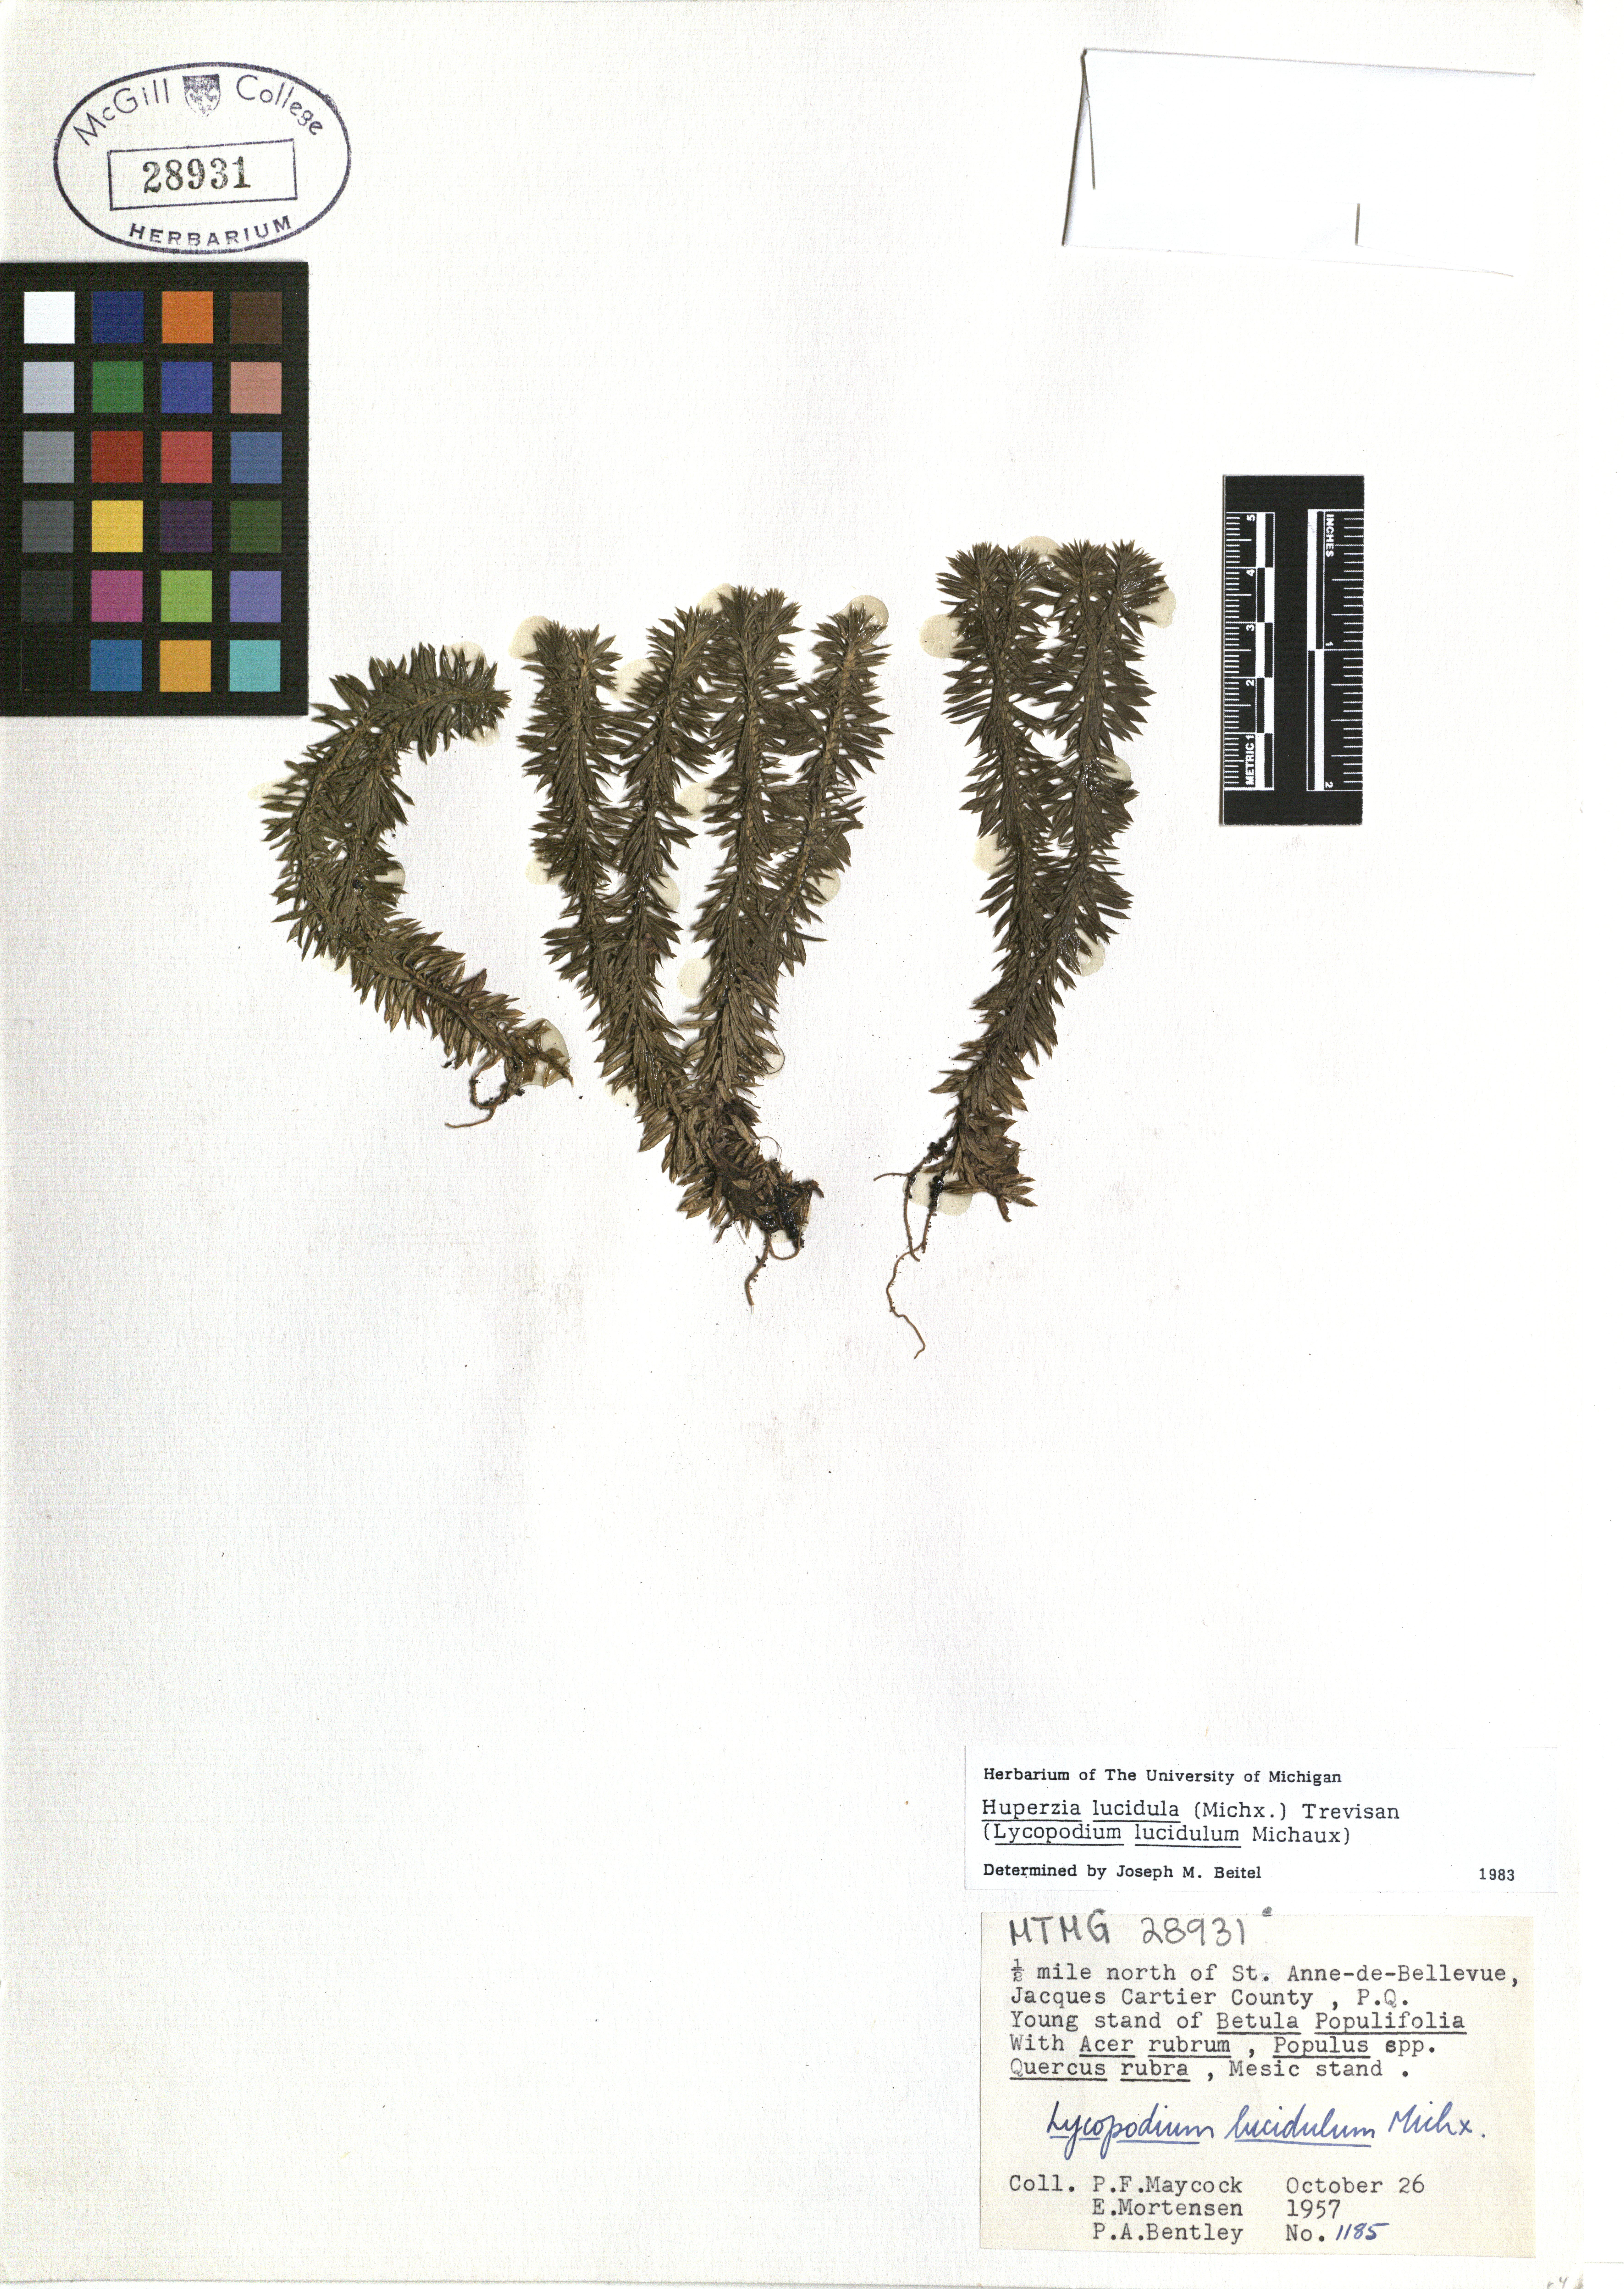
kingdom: Plantae
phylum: Tracheophyta
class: Lycopodiopsida
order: Lycopodiales
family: Lycopodiaceae
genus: Huperzia
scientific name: Huperzia lucidula
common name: Shining clubmoss
